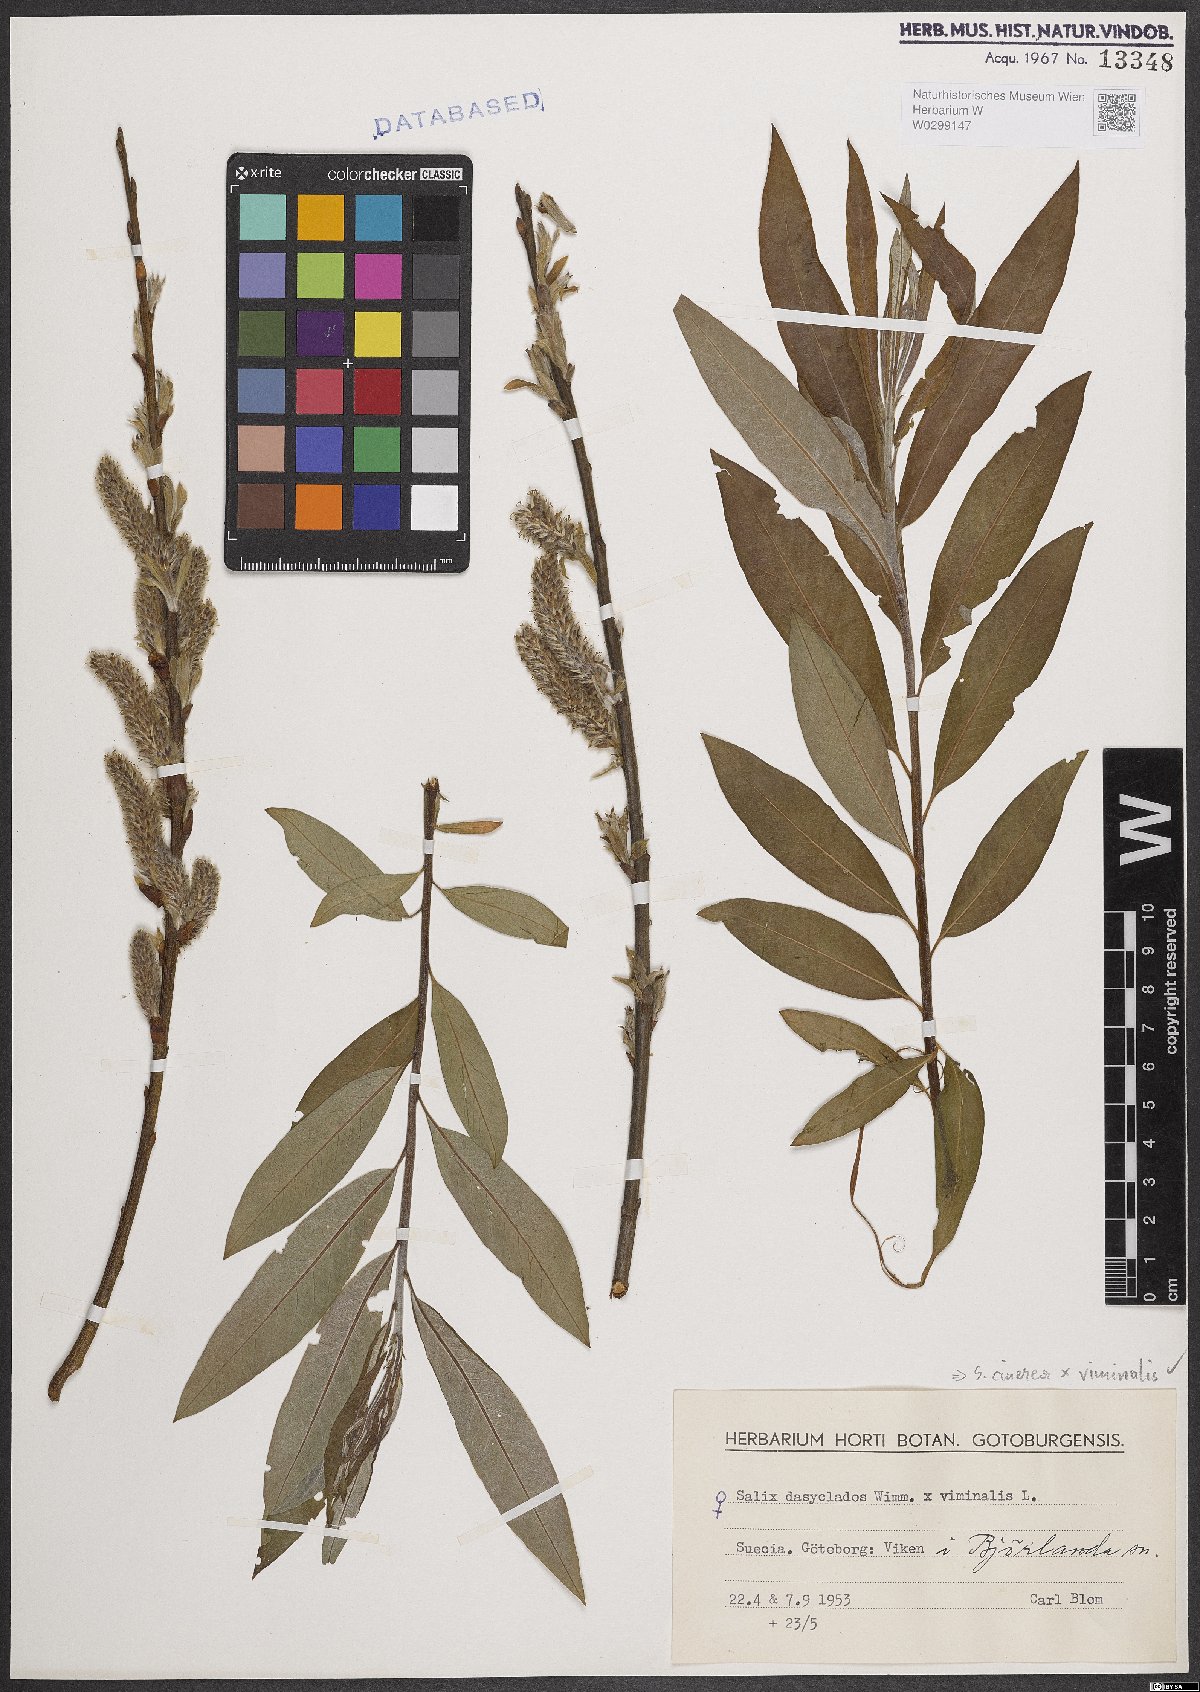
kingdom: Plantae
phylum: Tracheophyta
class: Magnoliopsida
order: Malpighiales
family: Salicaceae
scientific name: Salicaceae
